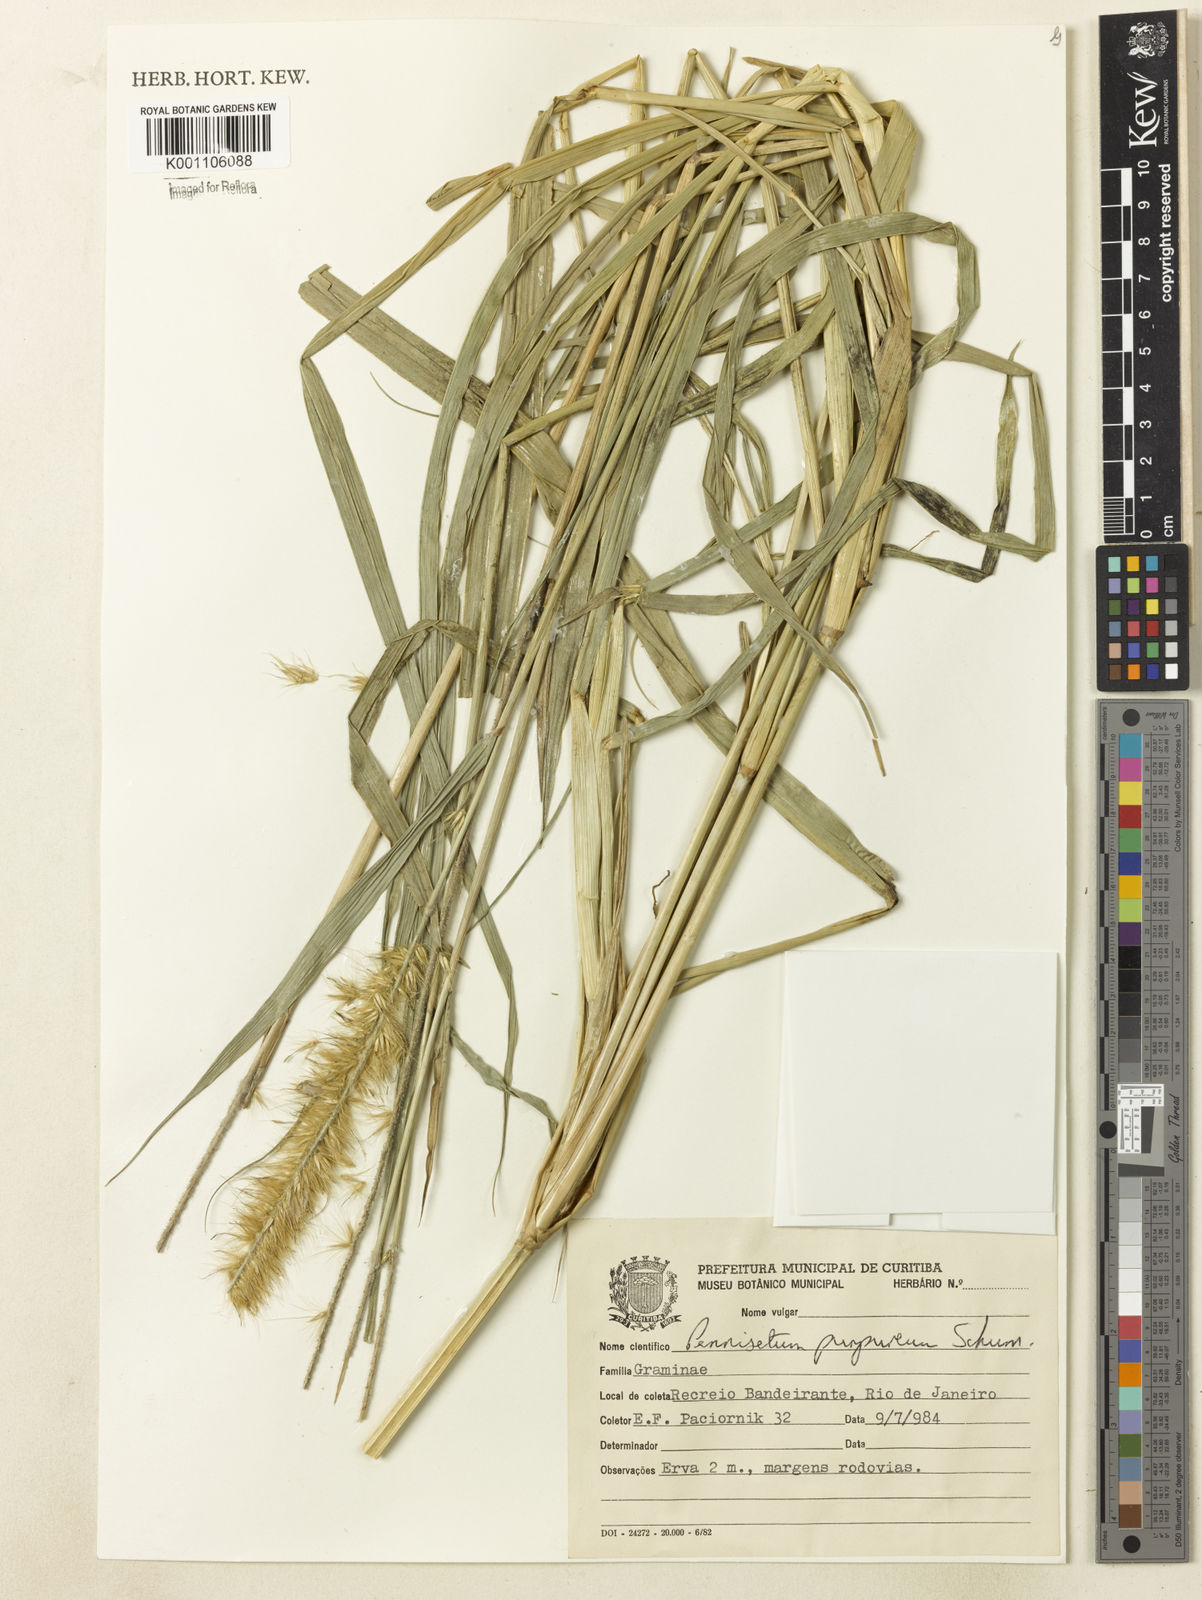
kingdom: Plantae
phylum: Tracheophyta
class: Liliopsida
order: Poales
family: Poaceae
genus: Cenchrus
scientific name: Cenchrus purpureus
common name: Elephant grass
